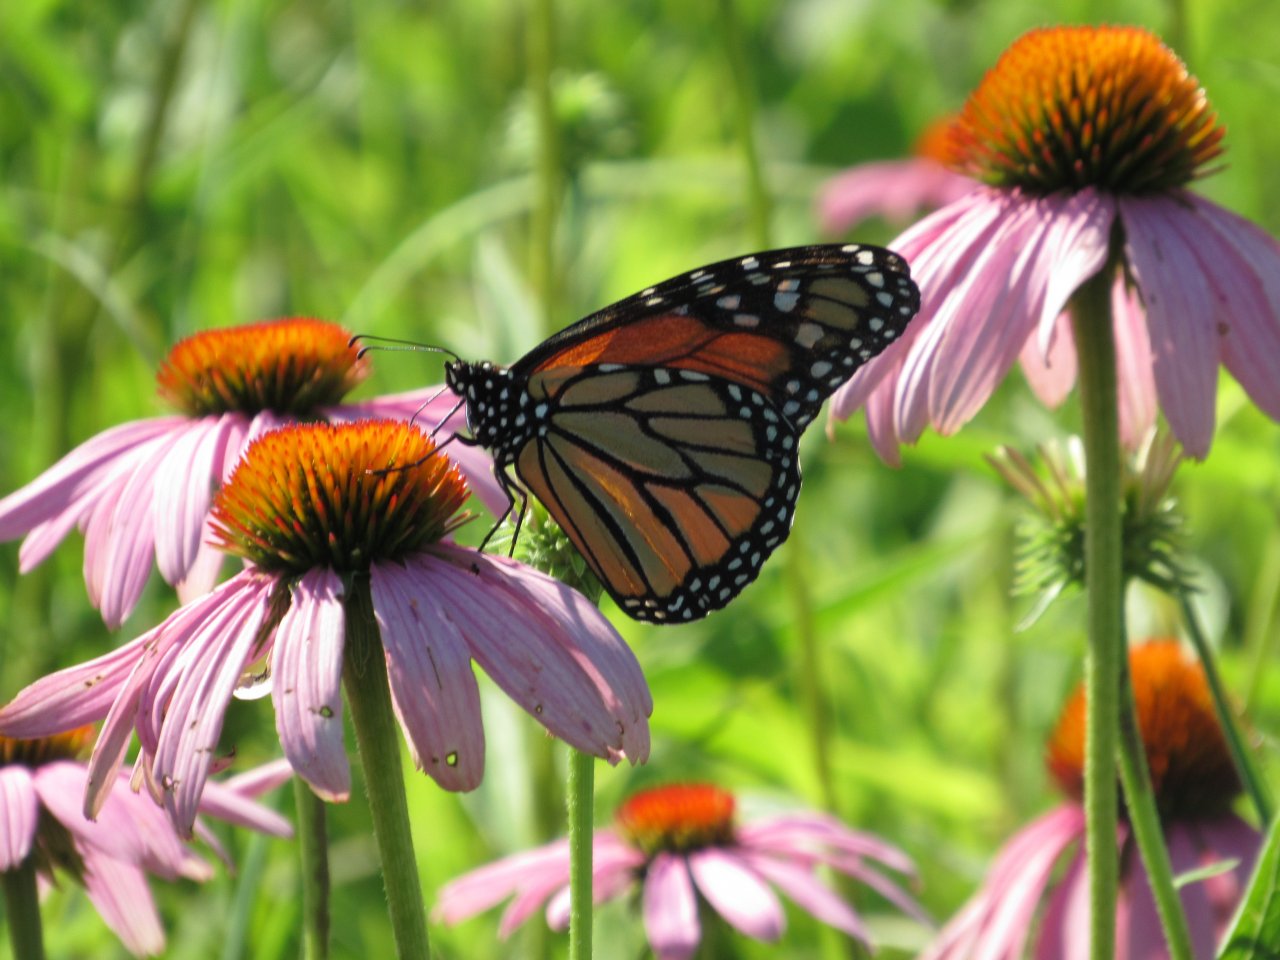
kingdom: Animalia
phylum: Arthropoda
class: Insecta
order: Lepidoptera
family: Nymphalidae
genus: Danaus
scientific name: Danaus plexippus
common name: Monarch
